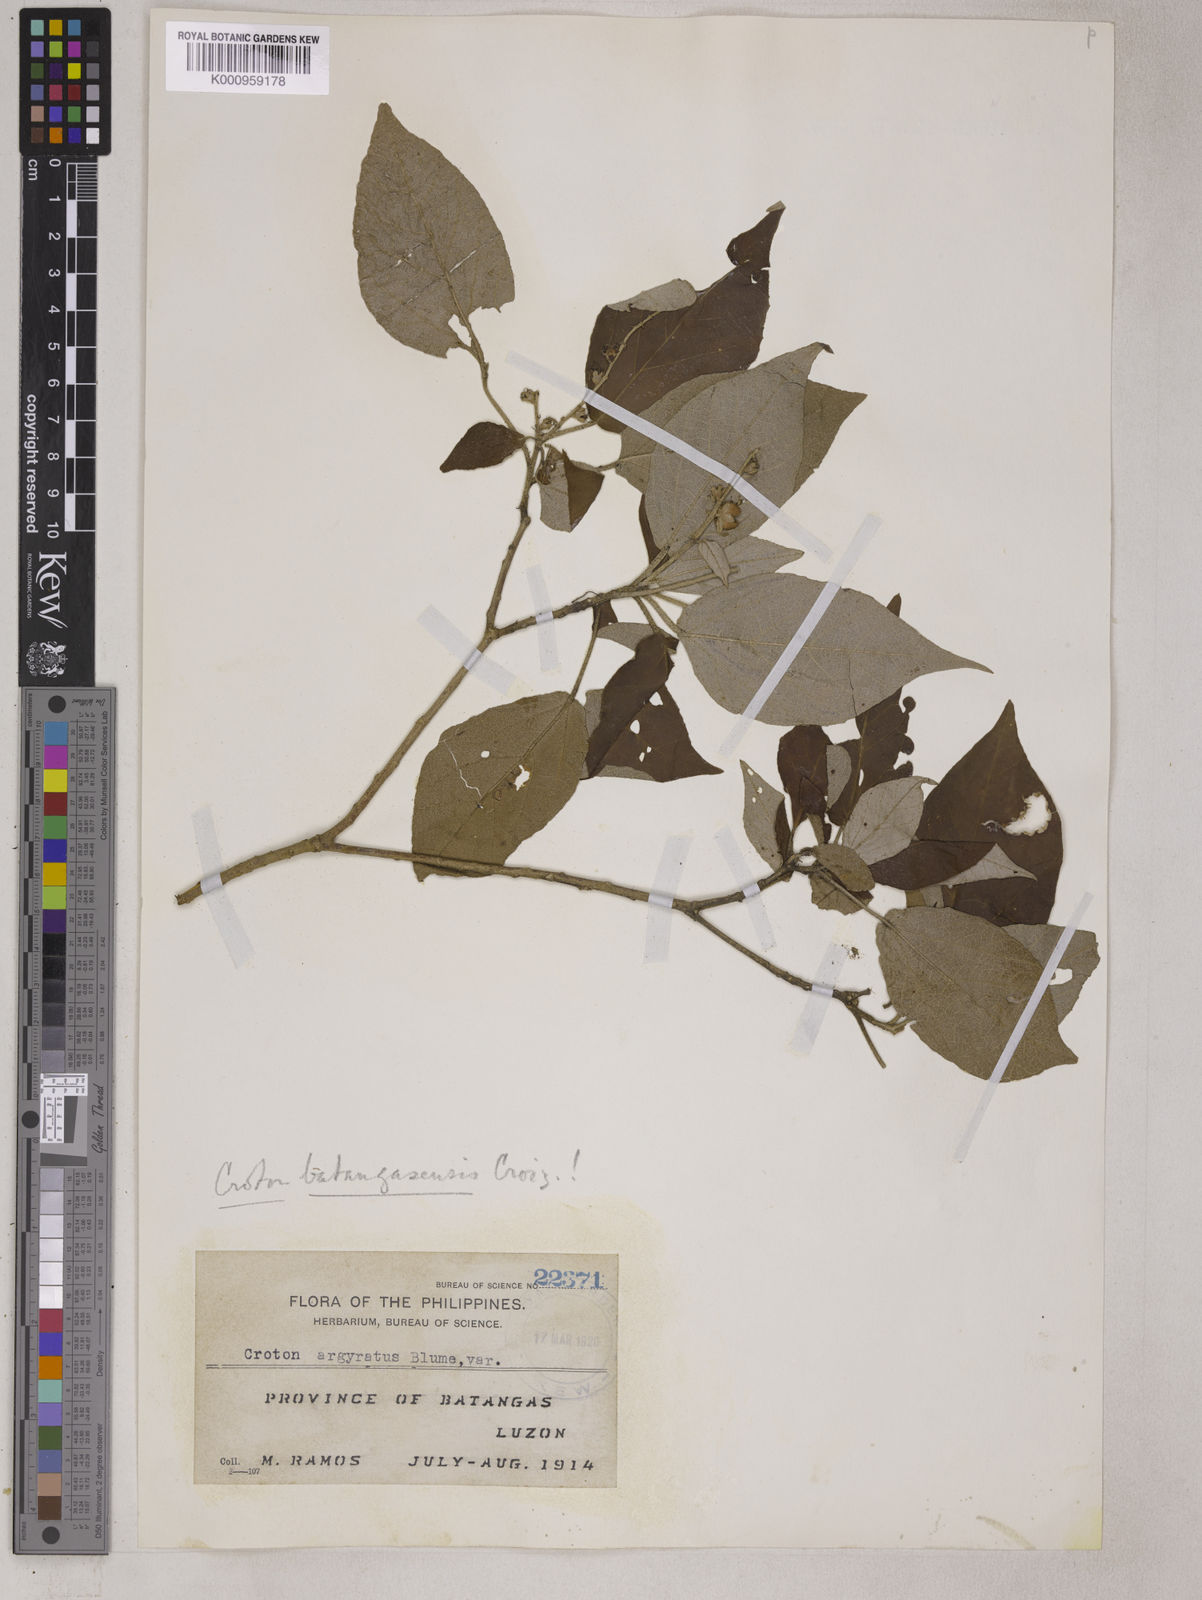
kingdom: Plantae
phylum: Tracheophyta
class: Magnoliopsida
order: Malpighiales
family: Euphorbiaceae
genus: Croton
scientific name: Croton batangasensis
